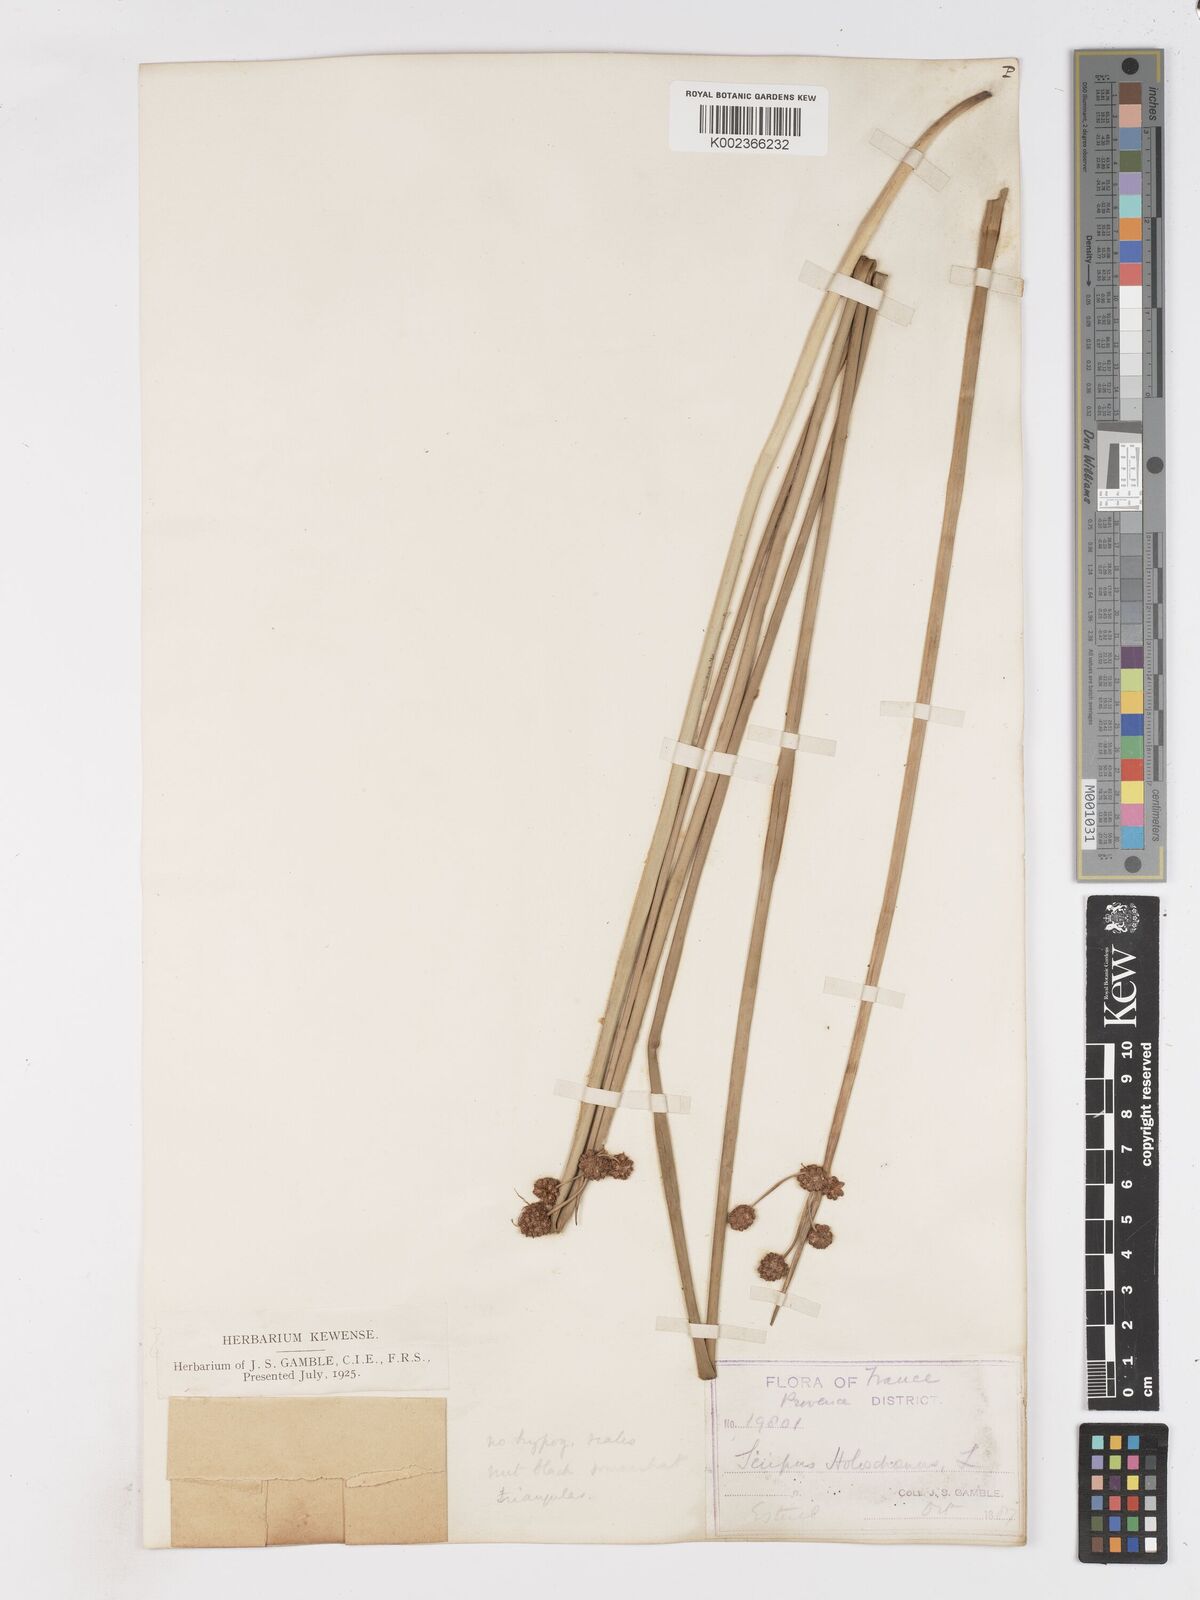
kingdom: Plantae
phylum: Tracheophyta
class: Liliopsida
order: Poales
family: Cyperaceae
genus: Scirpoides
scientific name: Scirpoides holoschoenus
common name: Round-headed club-rush
